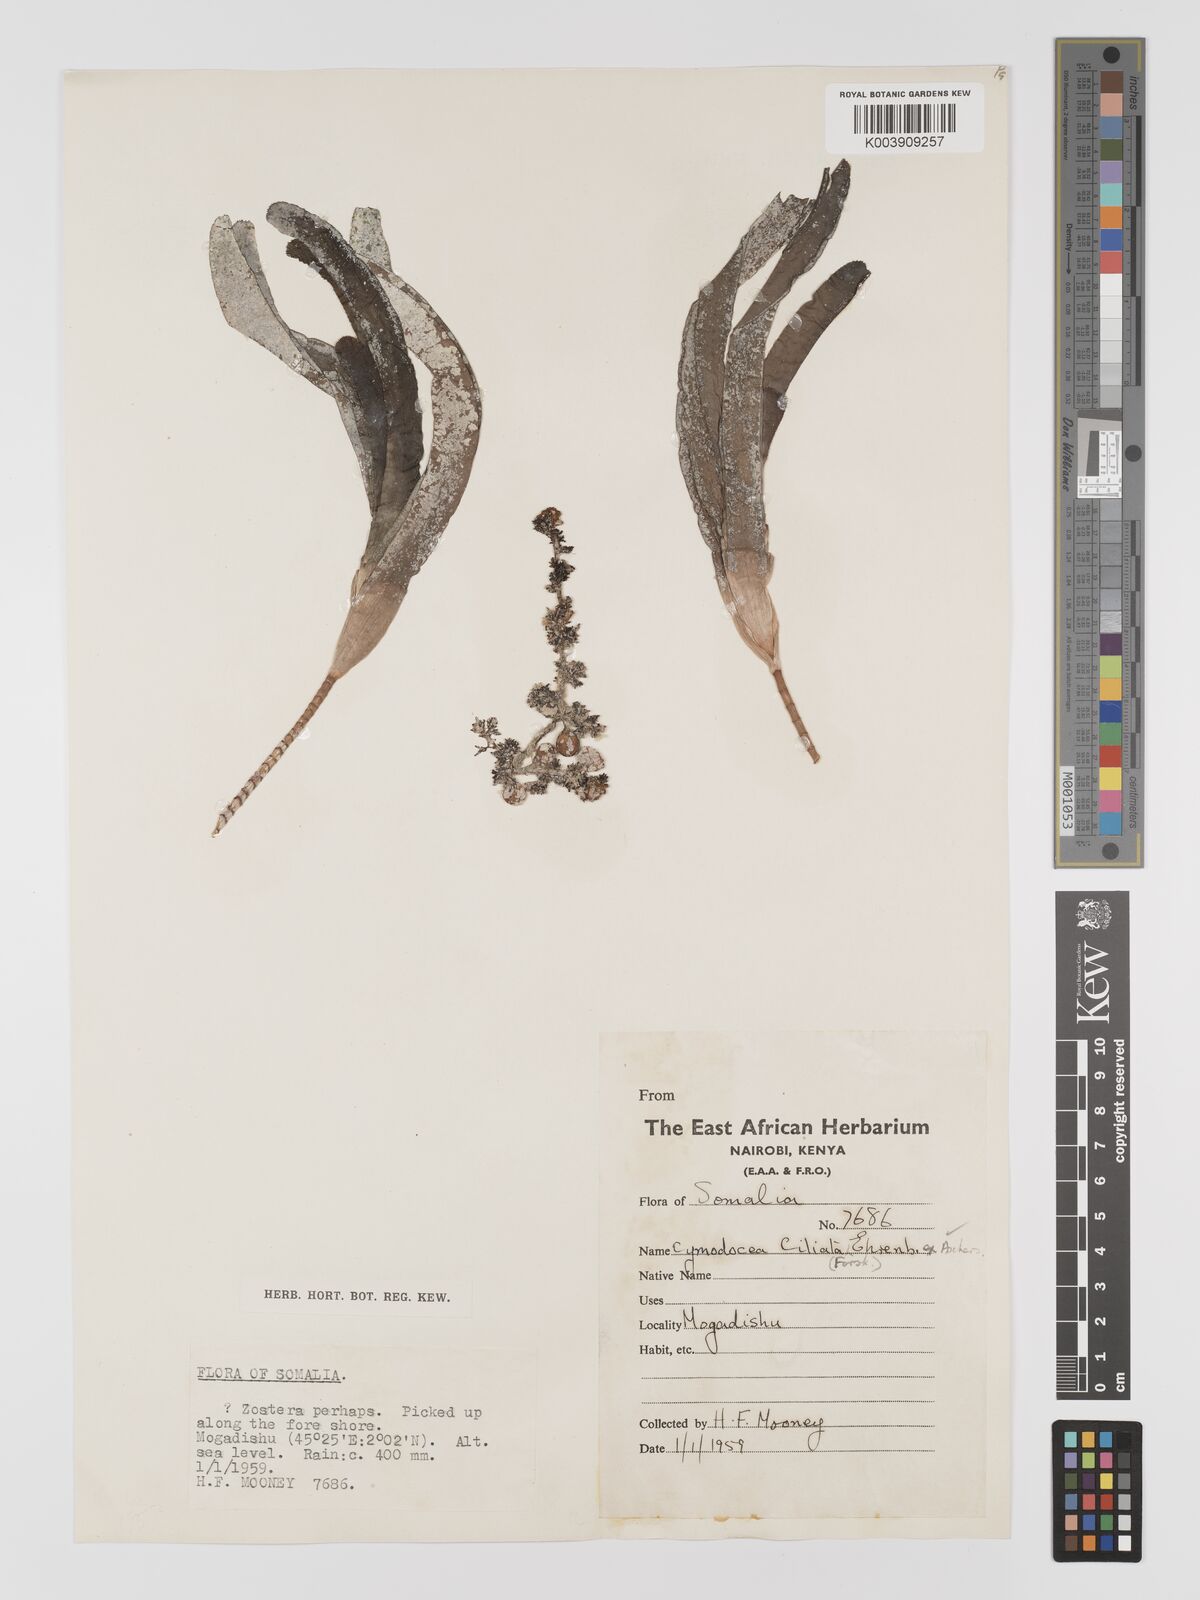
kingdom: Plantae
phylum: Tracheophyta
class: Liliopsida
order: Alismatales
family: Cymodoceaceae
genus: Thalassodendron
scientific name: Thalassodendron ciliatum
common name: Species code: tc
